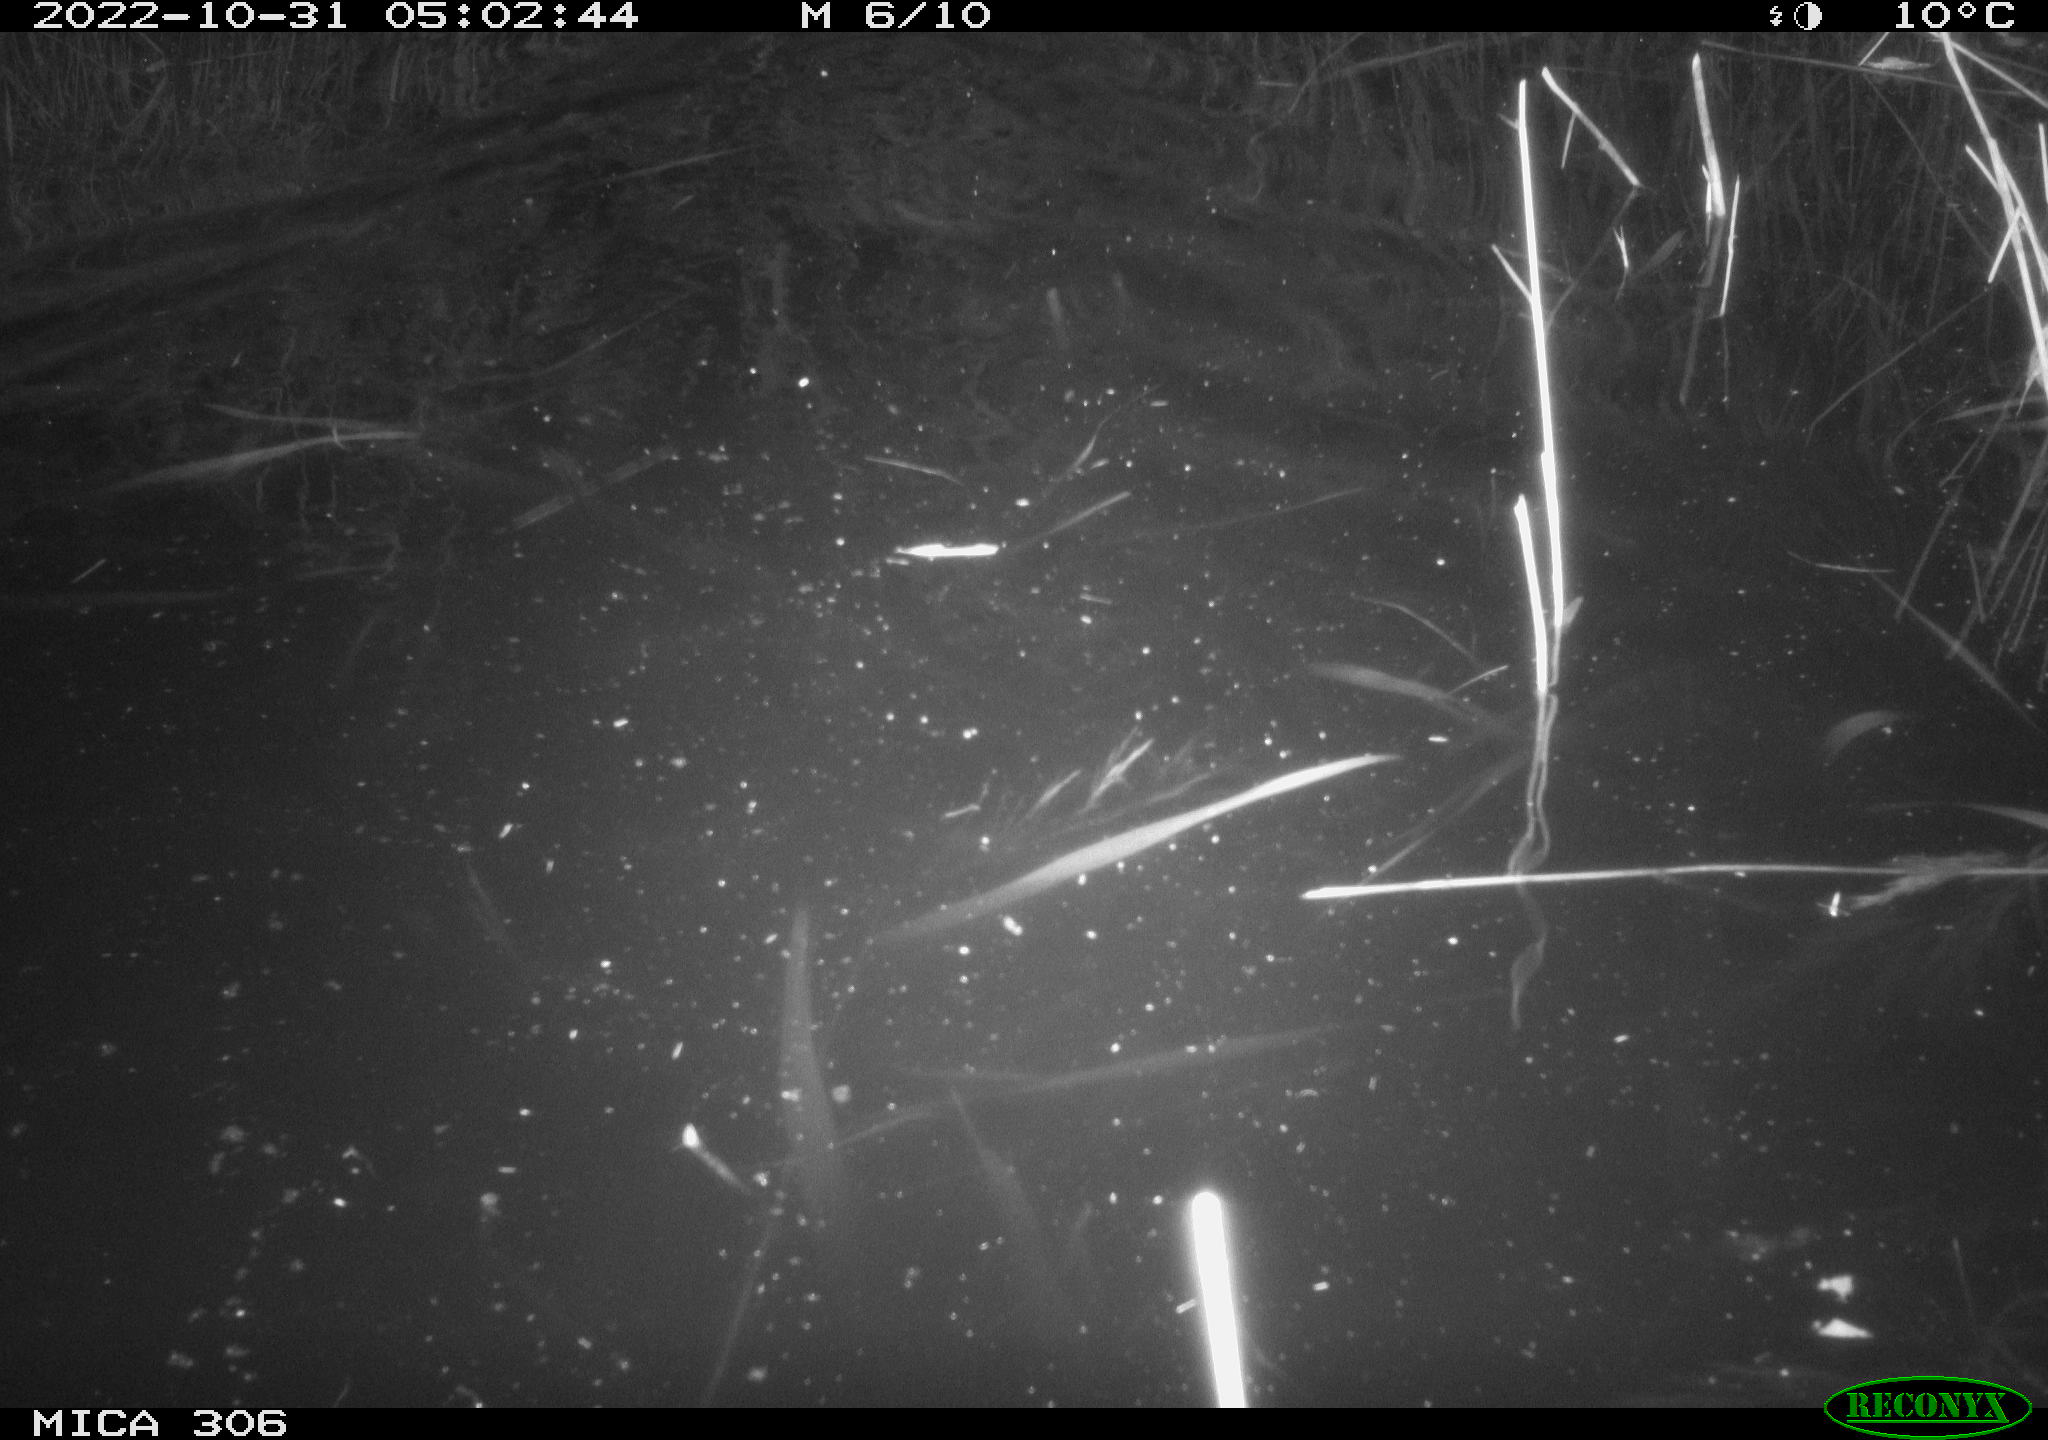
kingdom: Animalia
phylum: Chordata
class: Mammalia
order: Rodentia
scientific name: Rodentia
